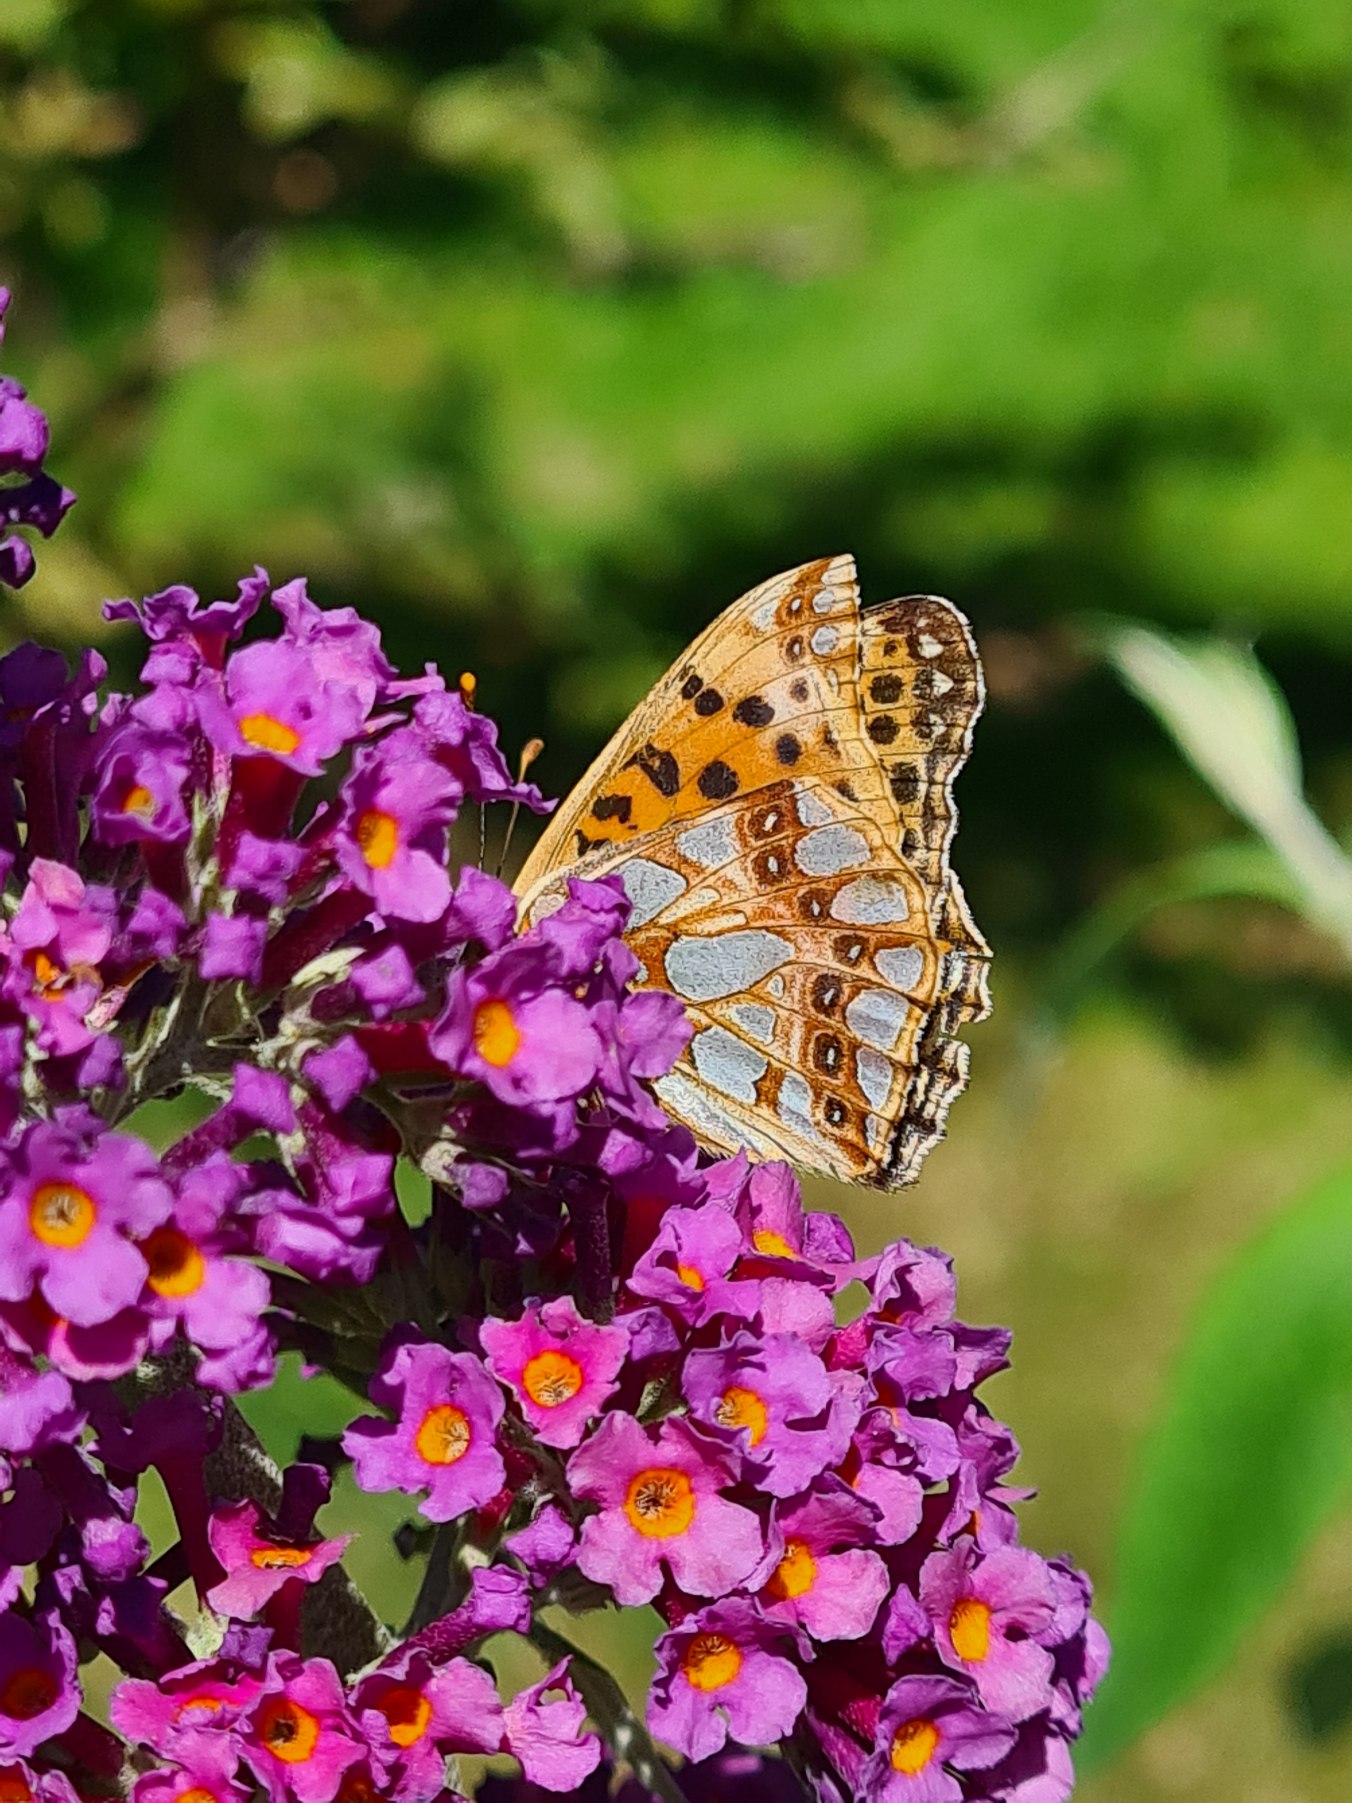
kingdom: Animalia
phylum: Arthropoda
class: Insecta
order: Lepidoptera
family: Nymphalidae
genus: Issoria
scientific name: Issoria lathonia
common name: Storplettet perlemorsommerfugl
